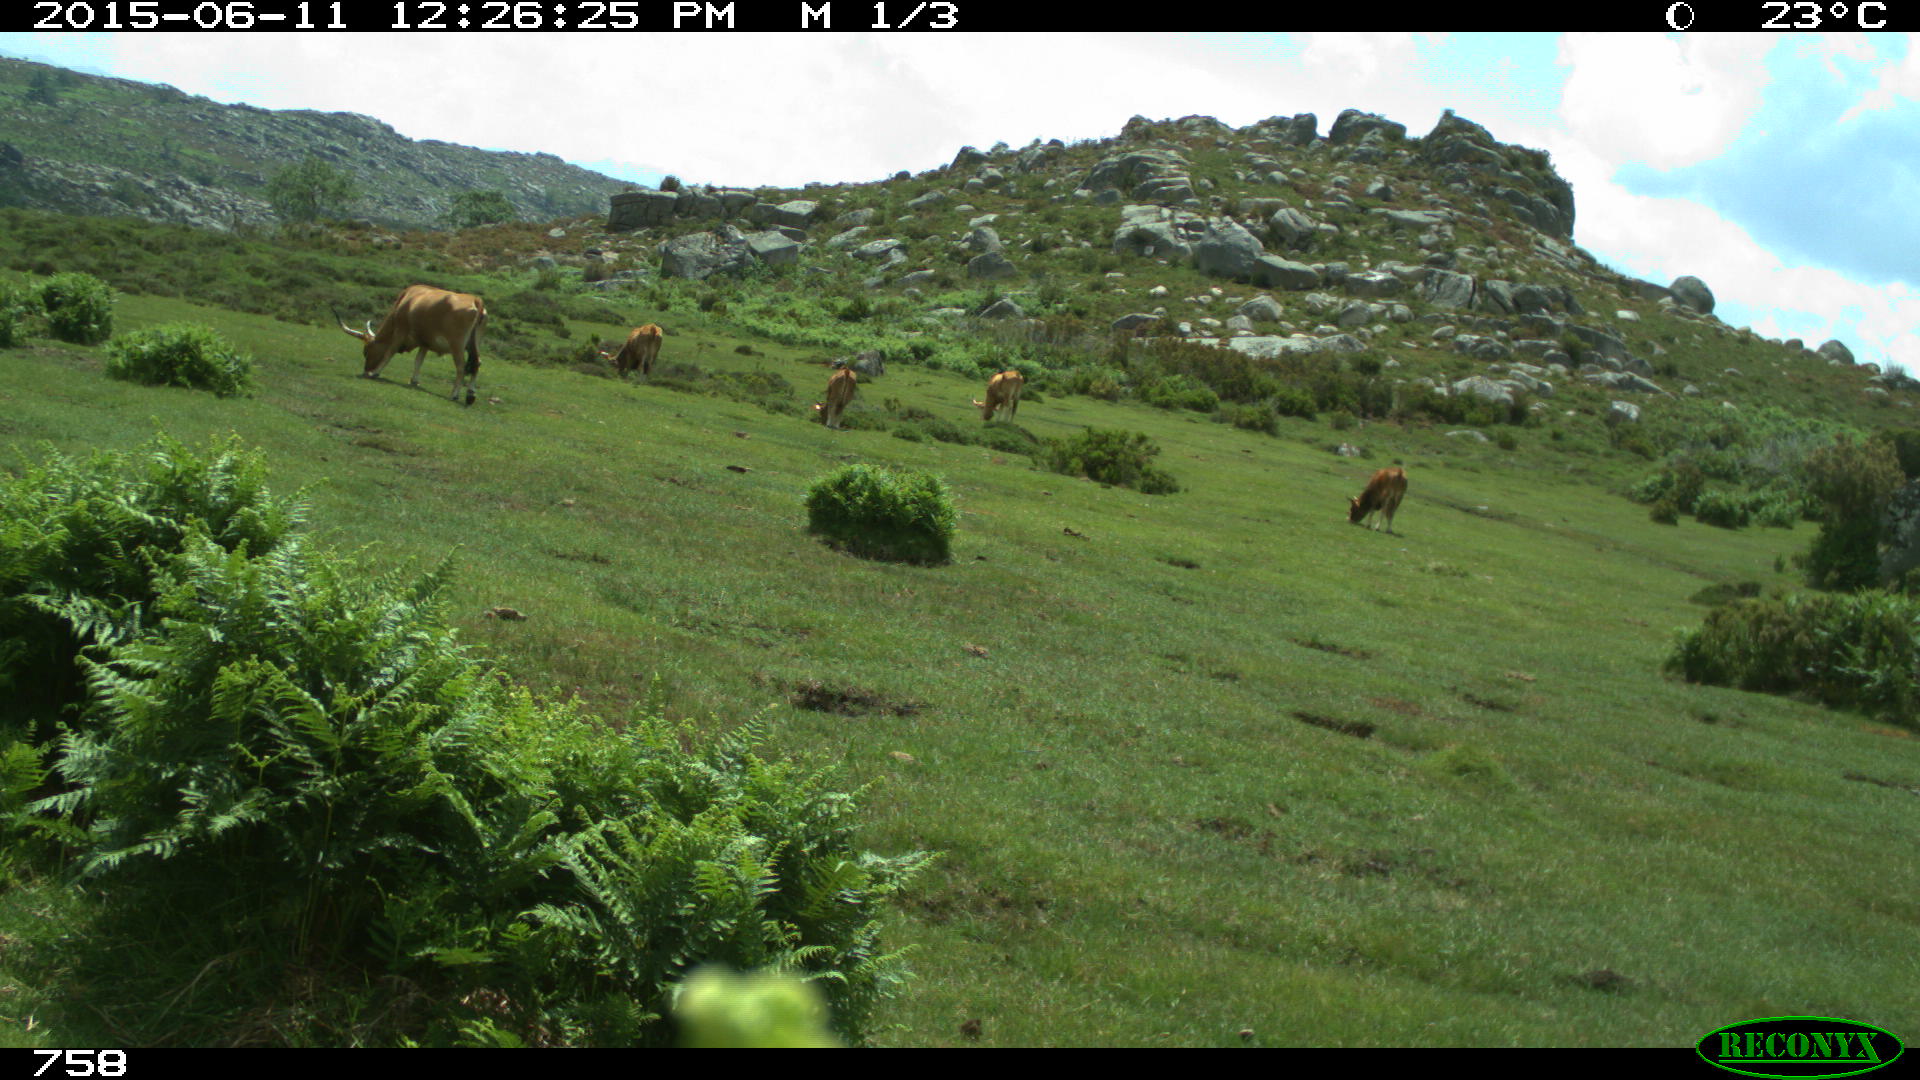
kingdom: Animalia
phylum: Chordata
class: Mammalia
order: Artiodactyla
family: Bovidae
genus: Bos
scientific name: Bos taurus
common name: Domesticated cattle
